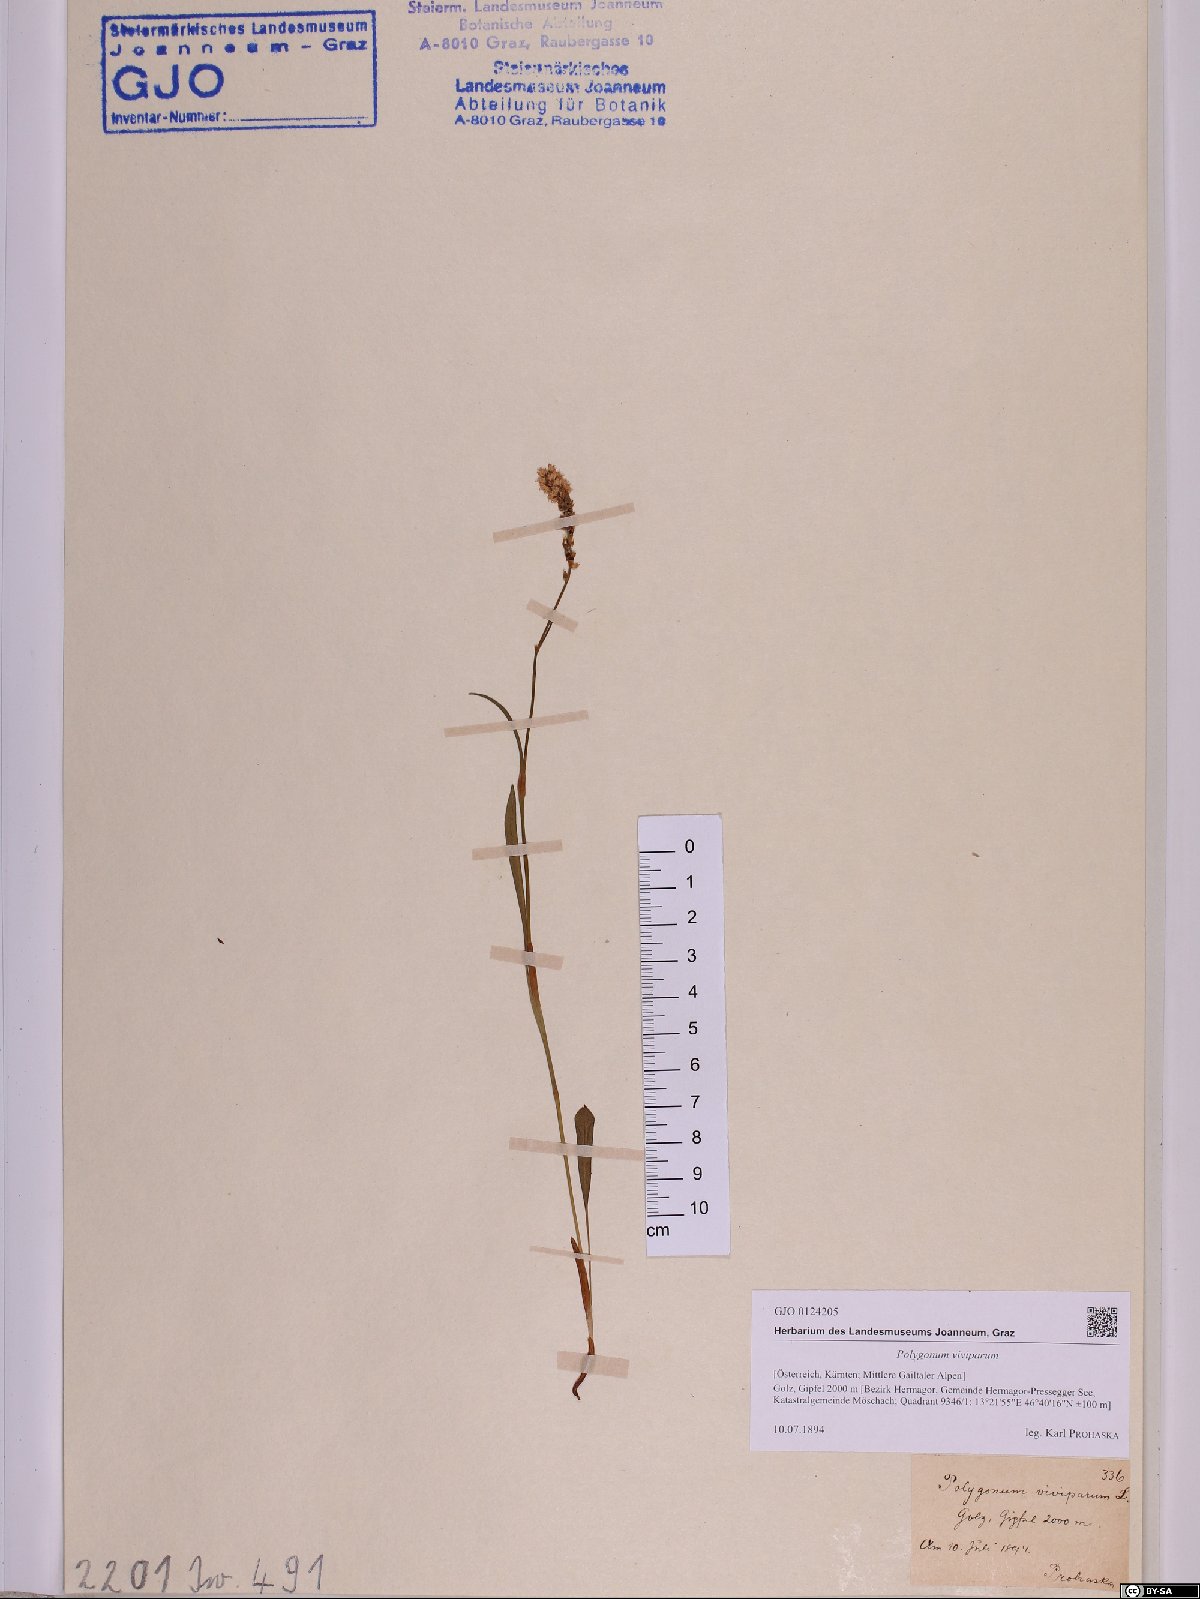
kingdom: Plantae
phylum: Tracheophyta
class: Magnoliopsida
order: Caryophyllales
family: Polygonaceae
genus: Bistorta
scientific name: Bistorta vivipara
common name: Alpine bistort
